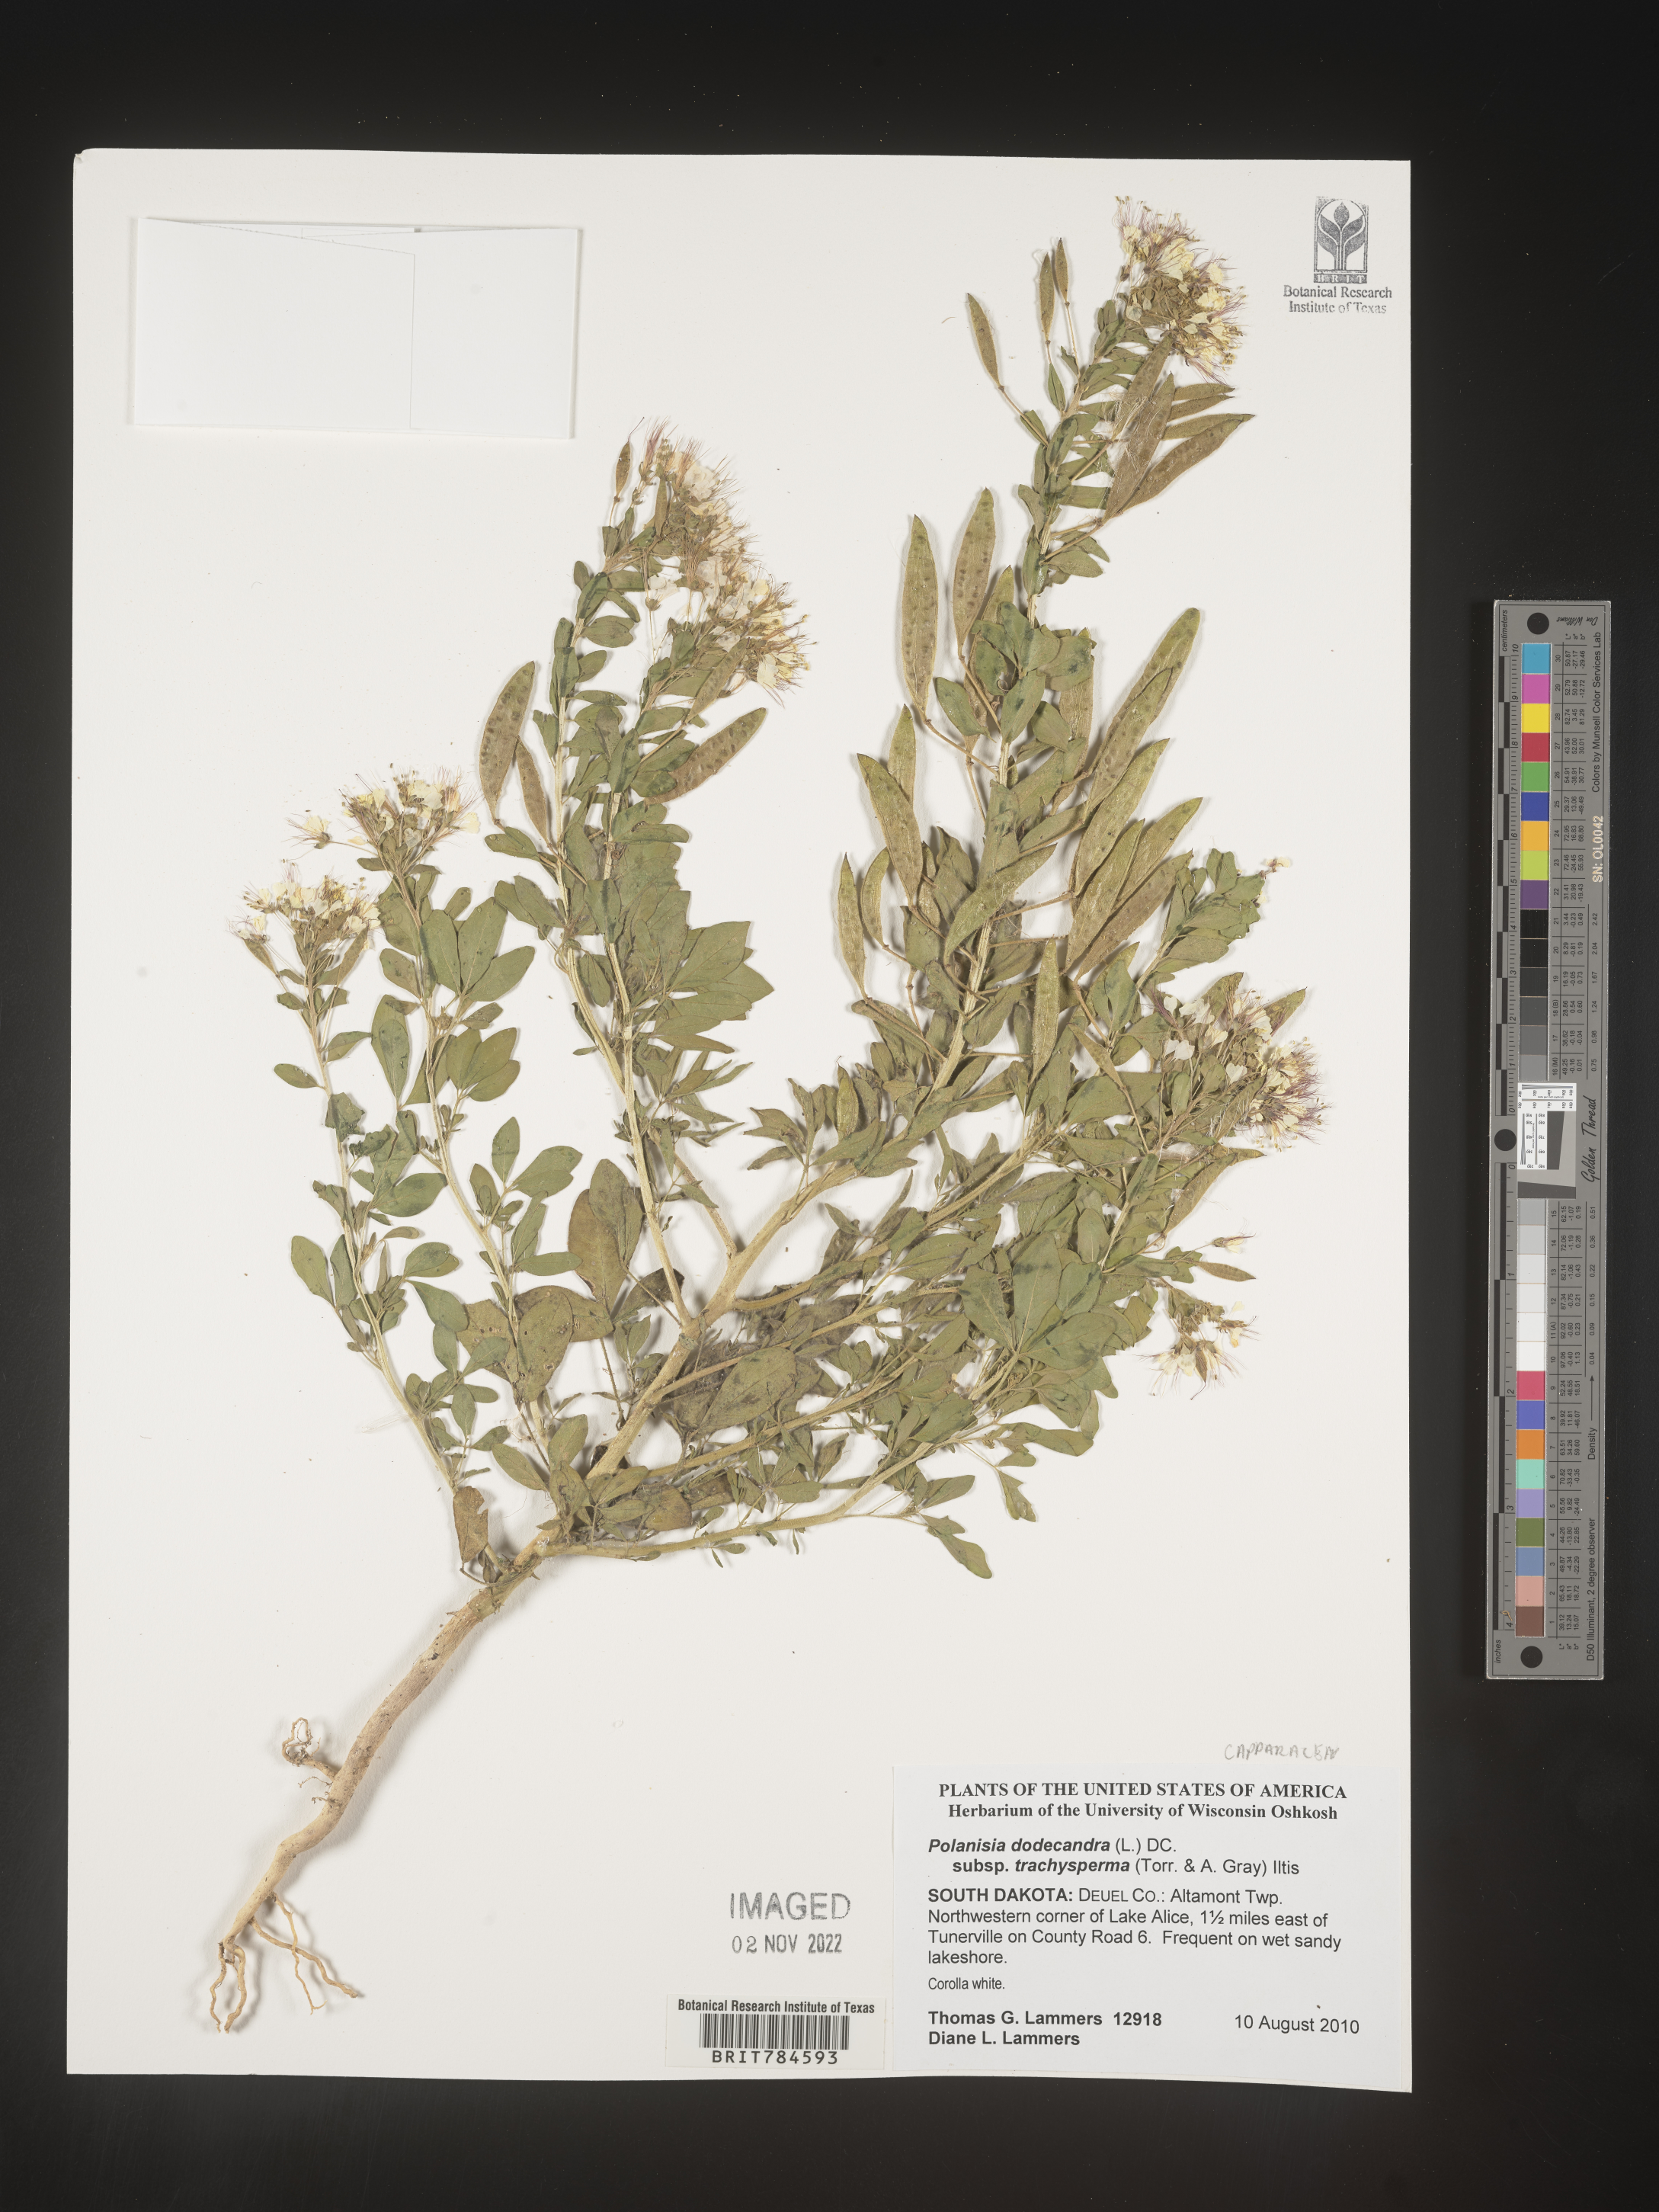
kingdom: Plantae
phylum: Tracheophyta
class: Magnoliopsida
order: Brassicales
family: Cleomaceae
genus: Polanisia
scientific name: Polanisia dodecandra
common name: Clammyweed
